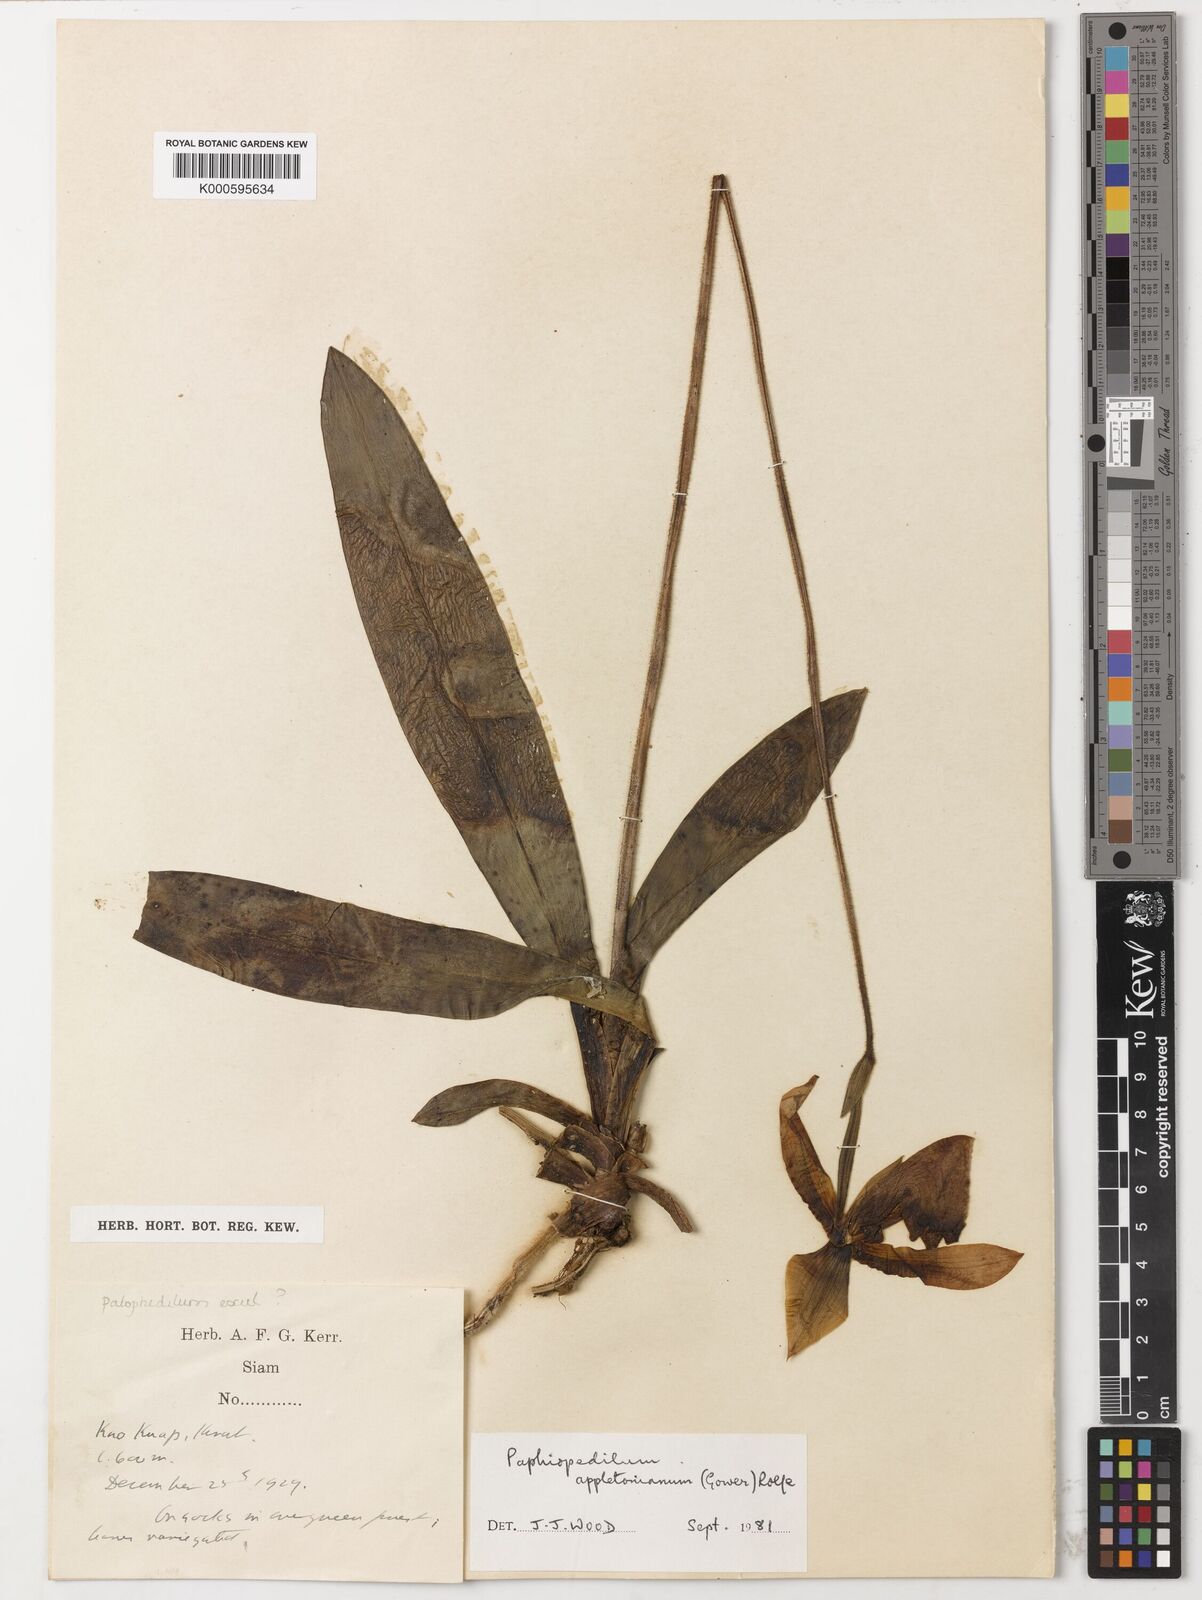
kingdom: Plantae
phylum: Tracheophyta
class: Liliopsida
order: Asparagales
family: Orchidaceae
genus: Paphiopedilum
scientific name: Paphiopedilum appletonianum
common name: Appleton's paphiopedilum
